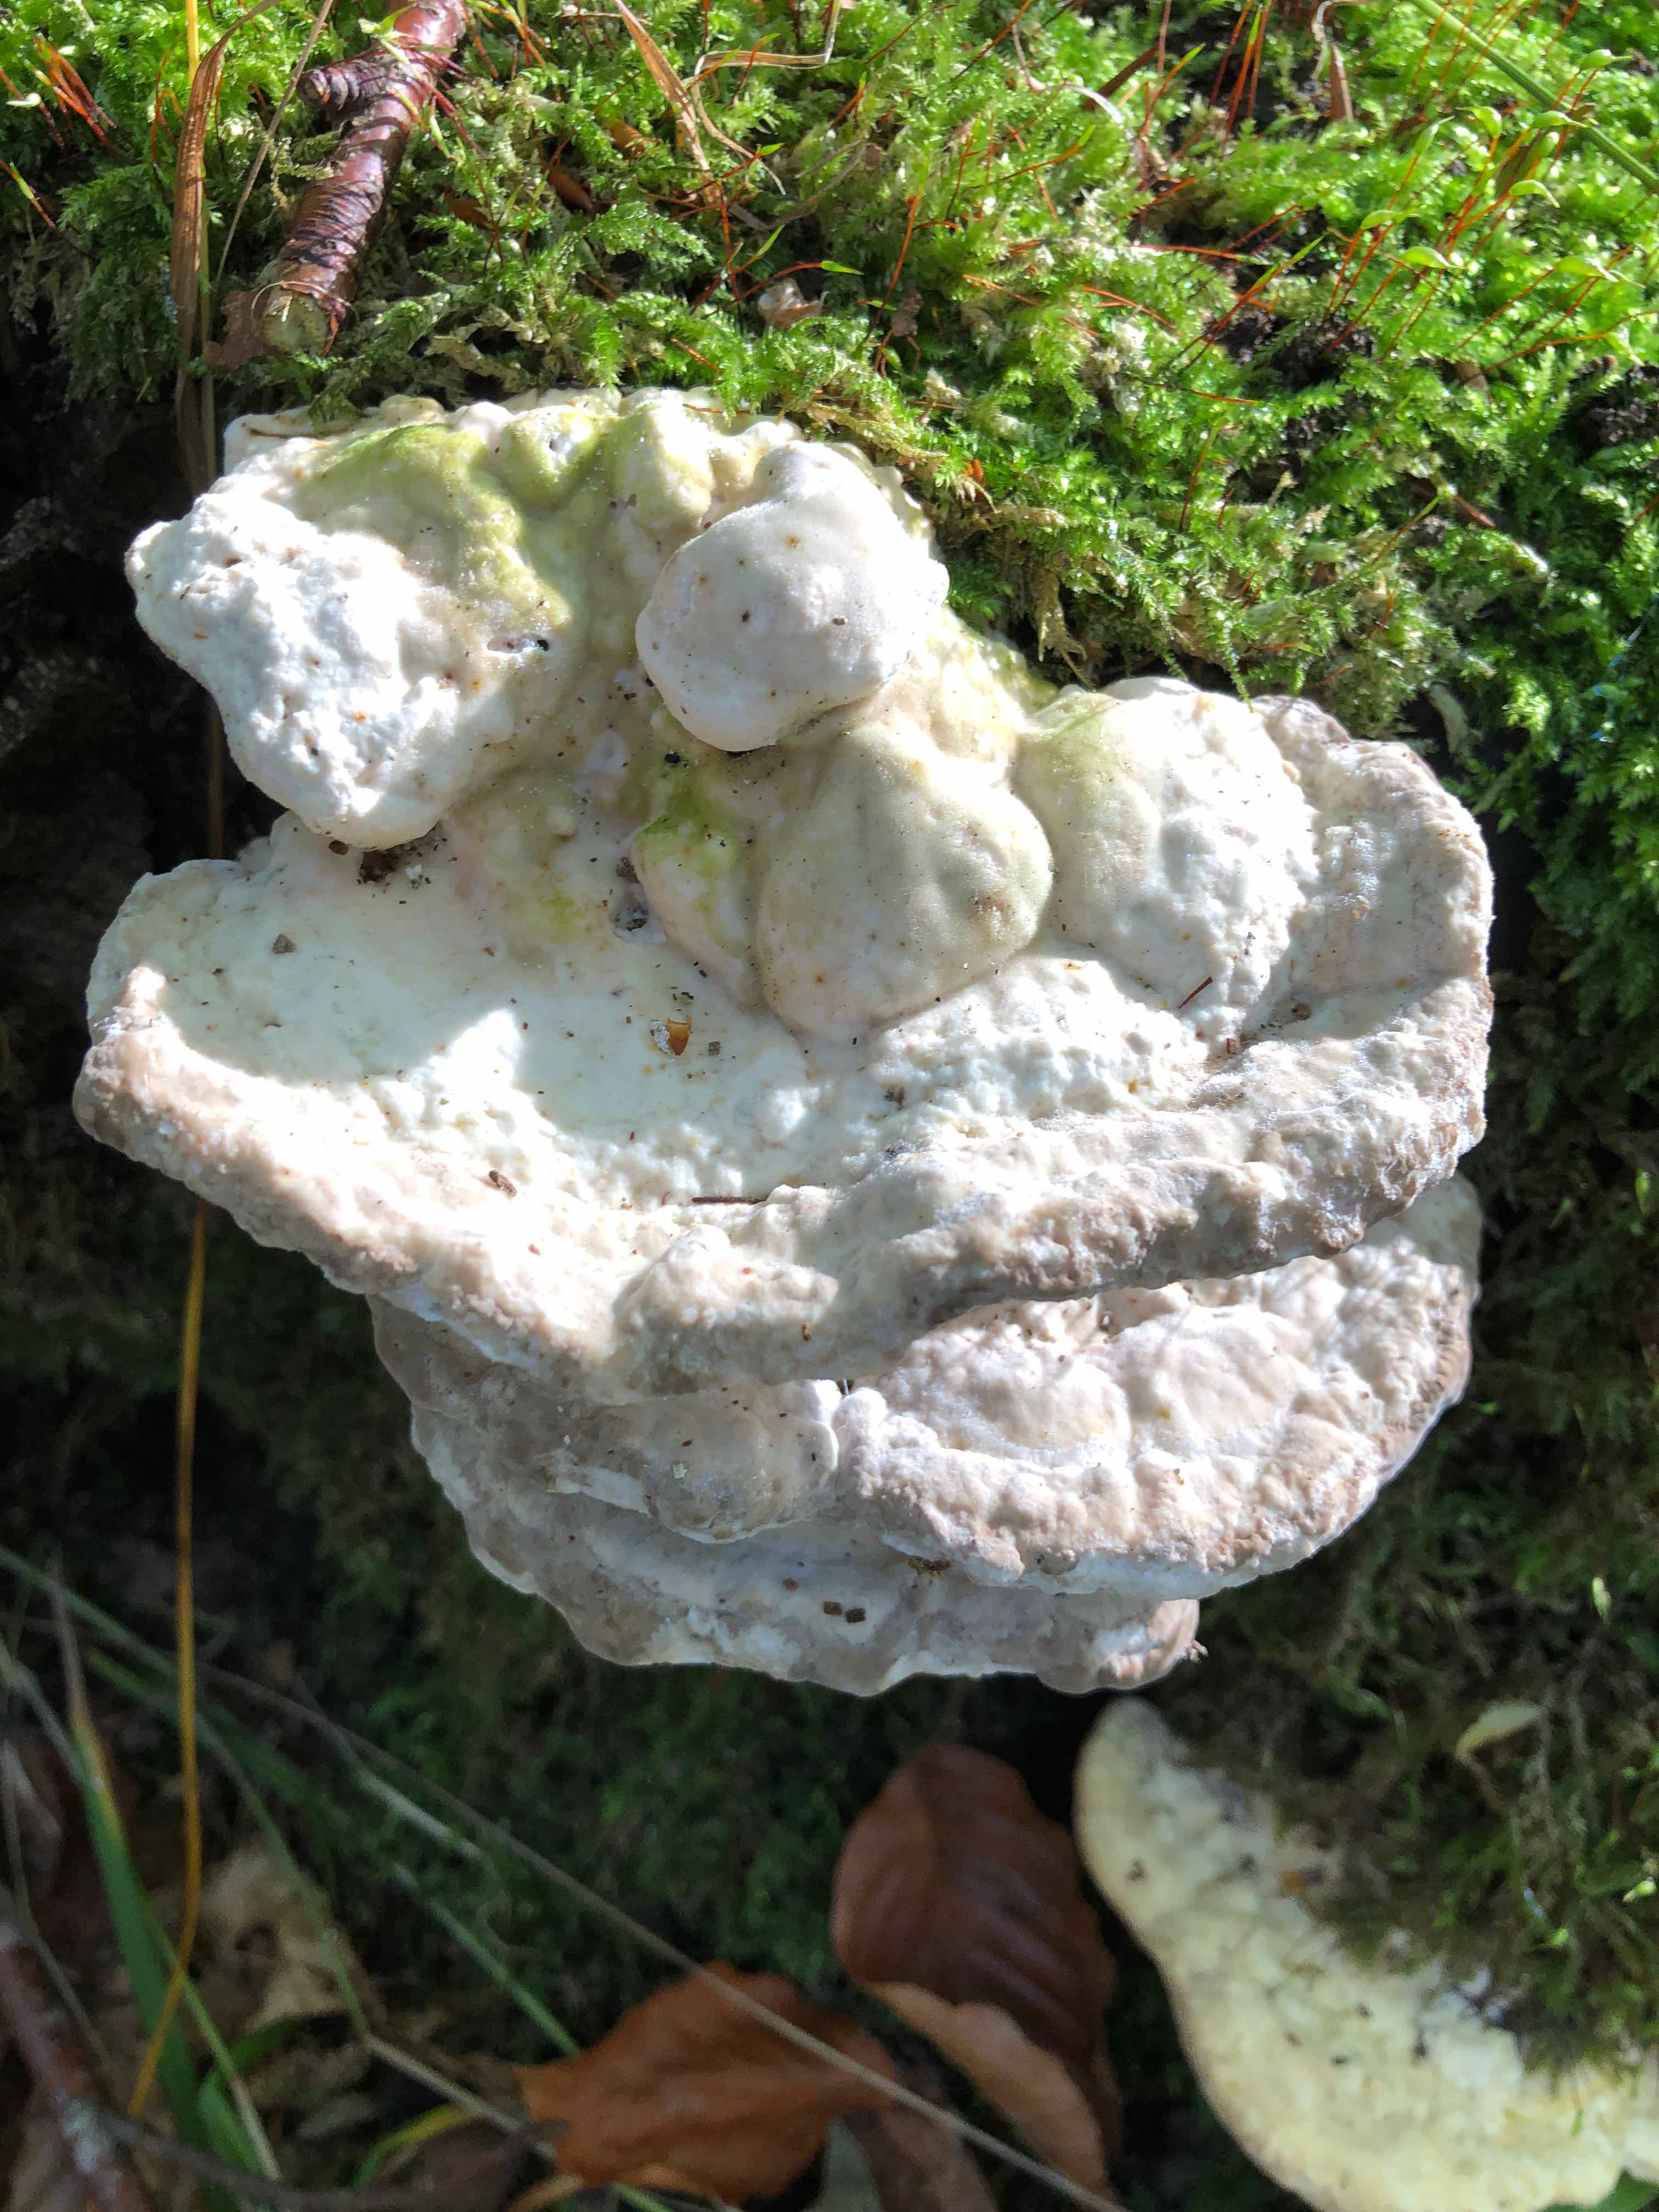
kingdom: Fungi
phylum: Basidiomycota
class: Agaricomycetes
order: Polyporales
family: Polyporaceae
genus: Trametes
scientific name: Trametes gibbosa
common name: puklet læderporesvamp
